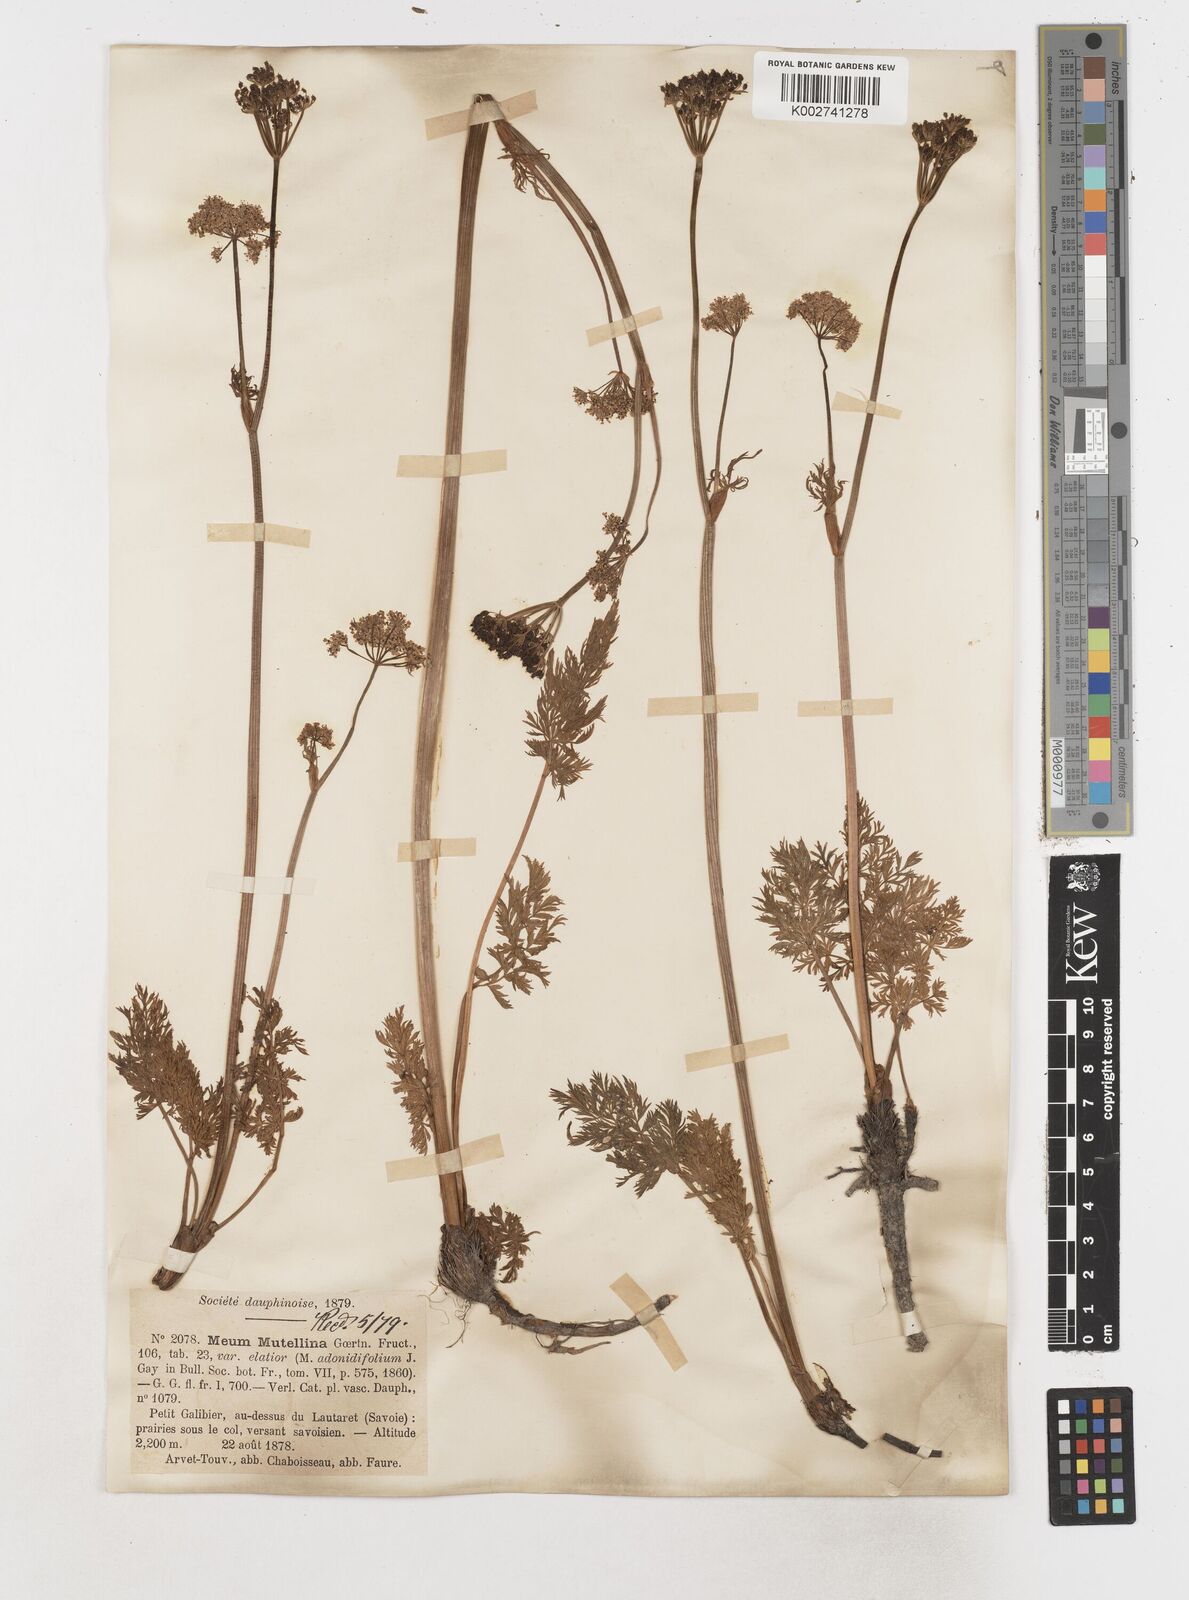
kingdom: Plantae
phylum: Tracheophyta
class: Magnoliopsida
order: Apiales
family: Apiaceae
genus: Mutellina
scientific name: Mutellina adonidifolia
